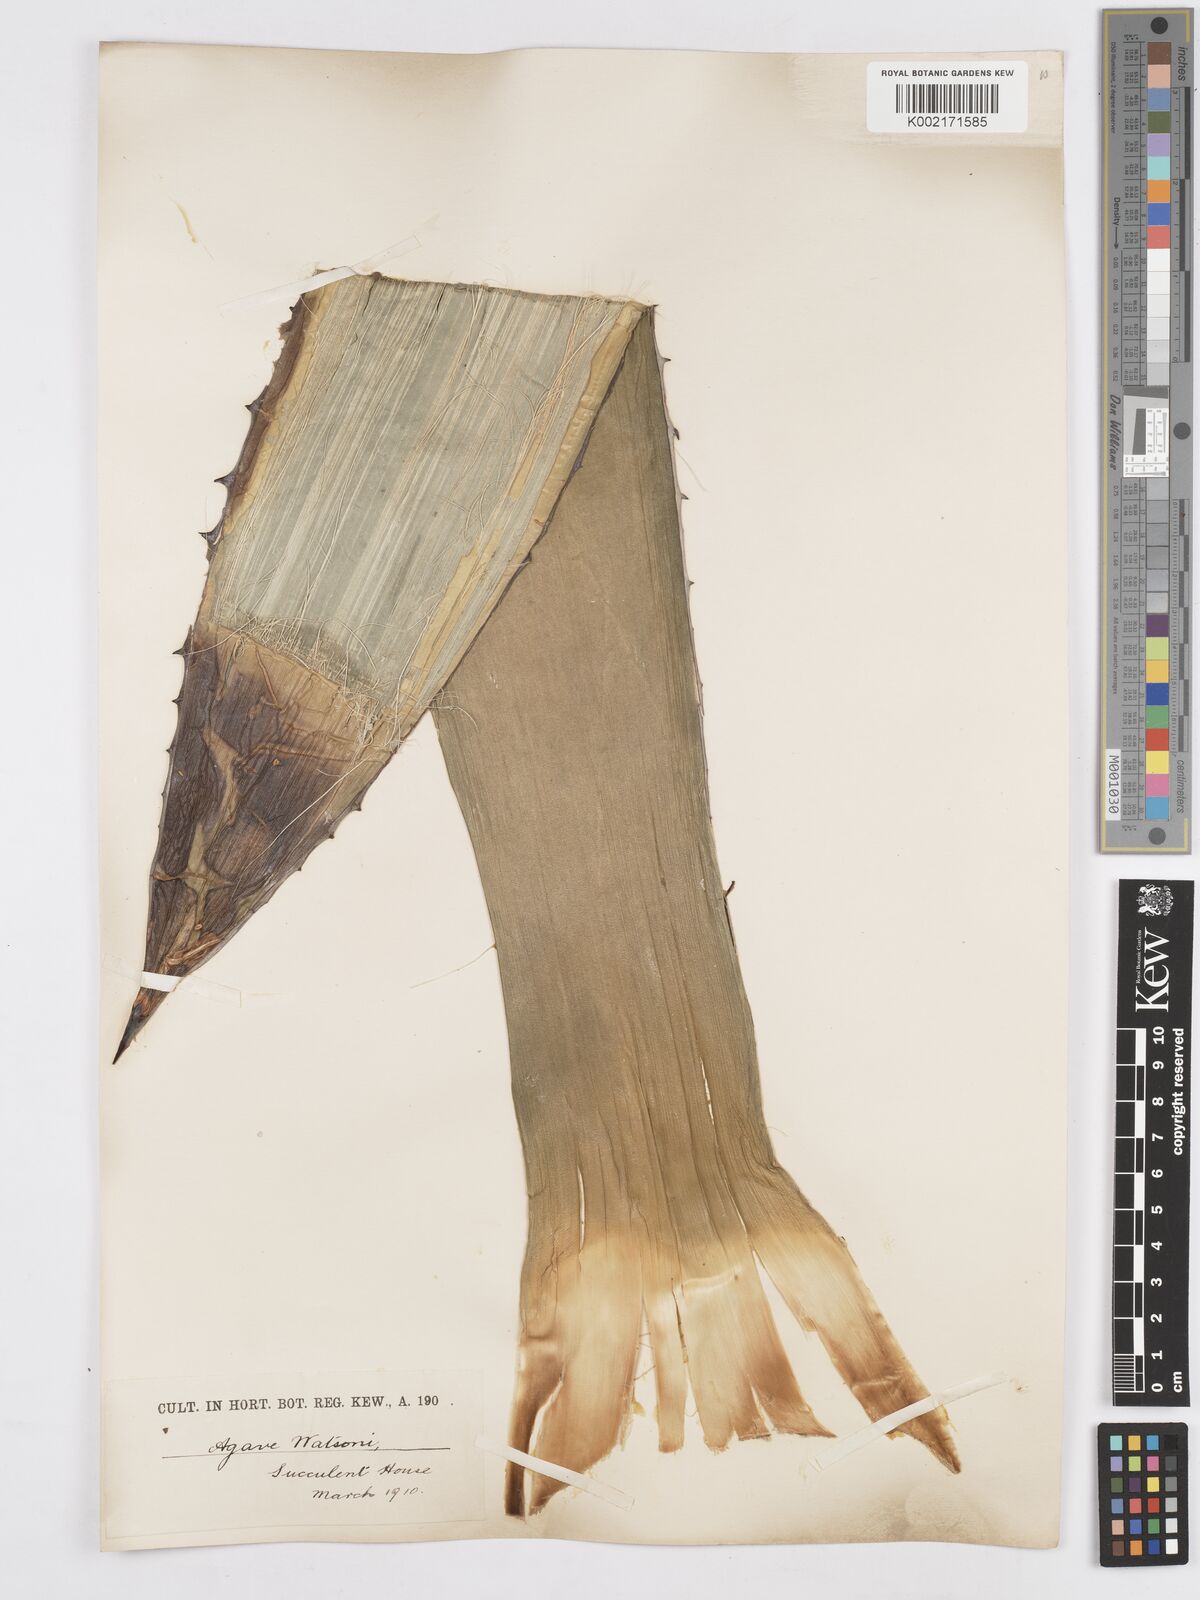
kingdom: Plantae
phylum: Tracheophyta
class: Liliopsida
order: Asparagales
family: Asparagaceae
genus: Agave
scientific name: Agave watsonii
